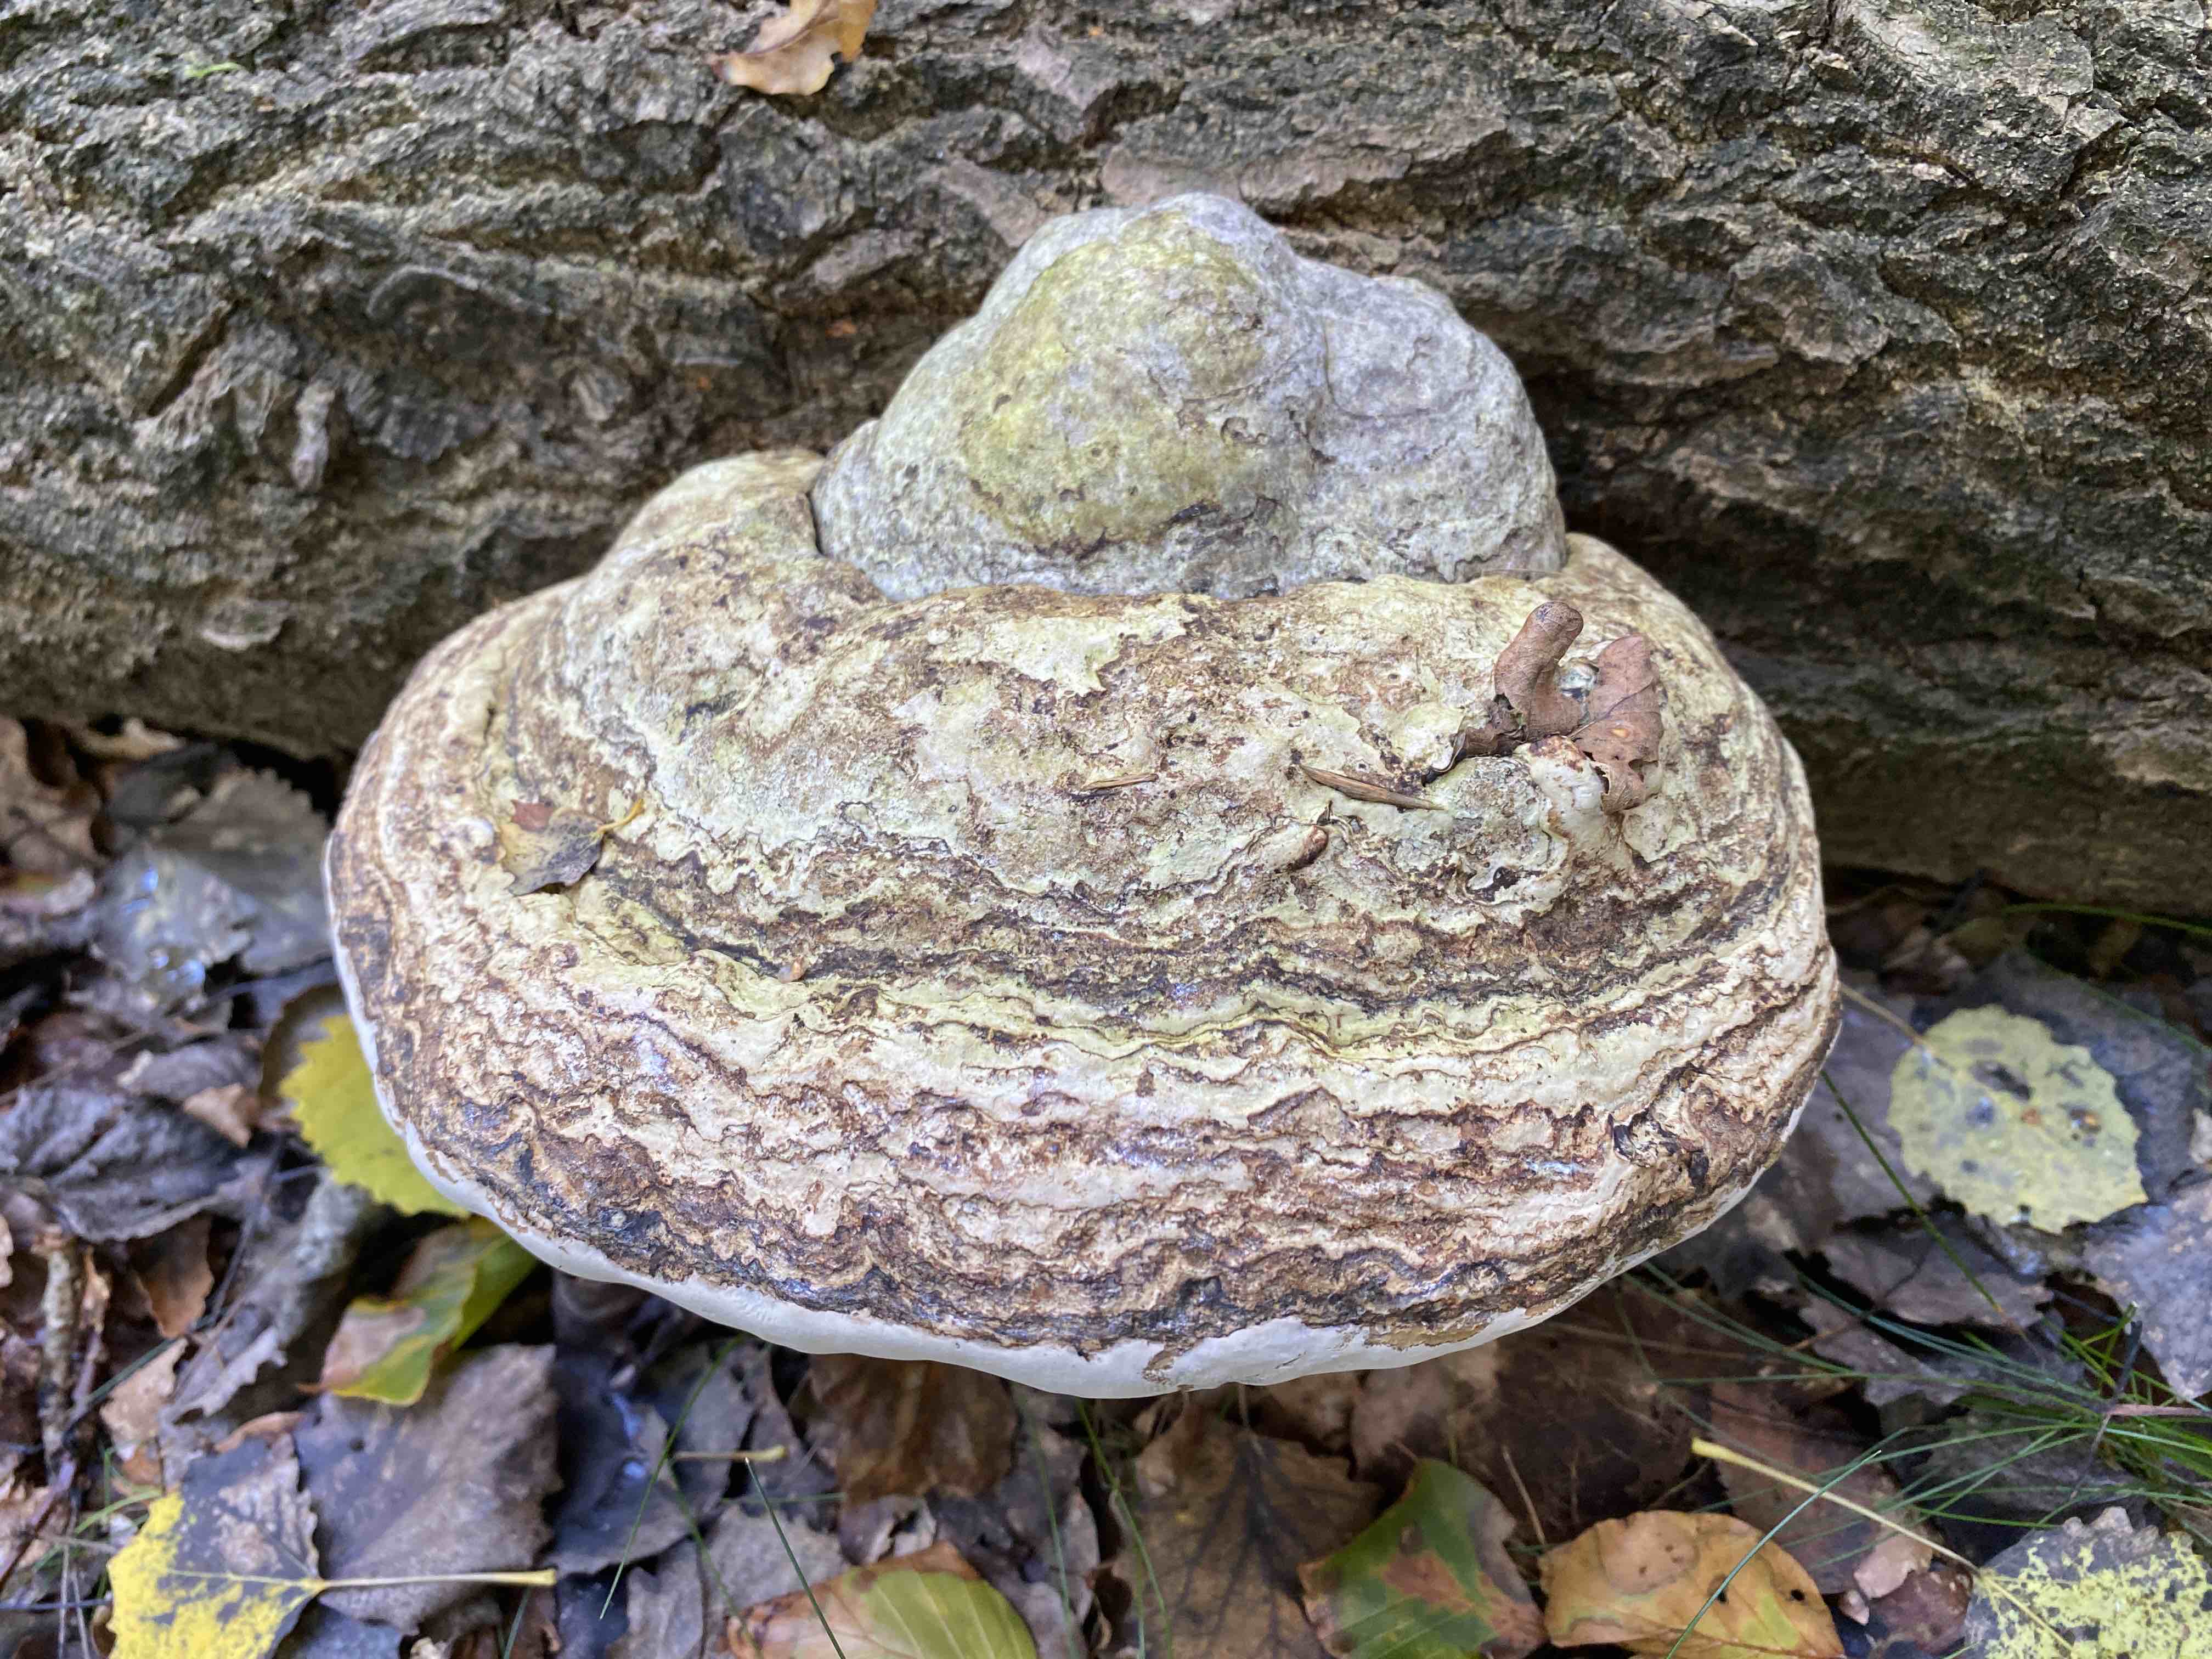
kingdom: Fungi
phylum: Basidiomycota
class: Agaricomycetes
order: Polyporales
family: Polyporaceae
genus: Fomes
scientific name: Fomes fomentarius
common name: tøndersvamp
